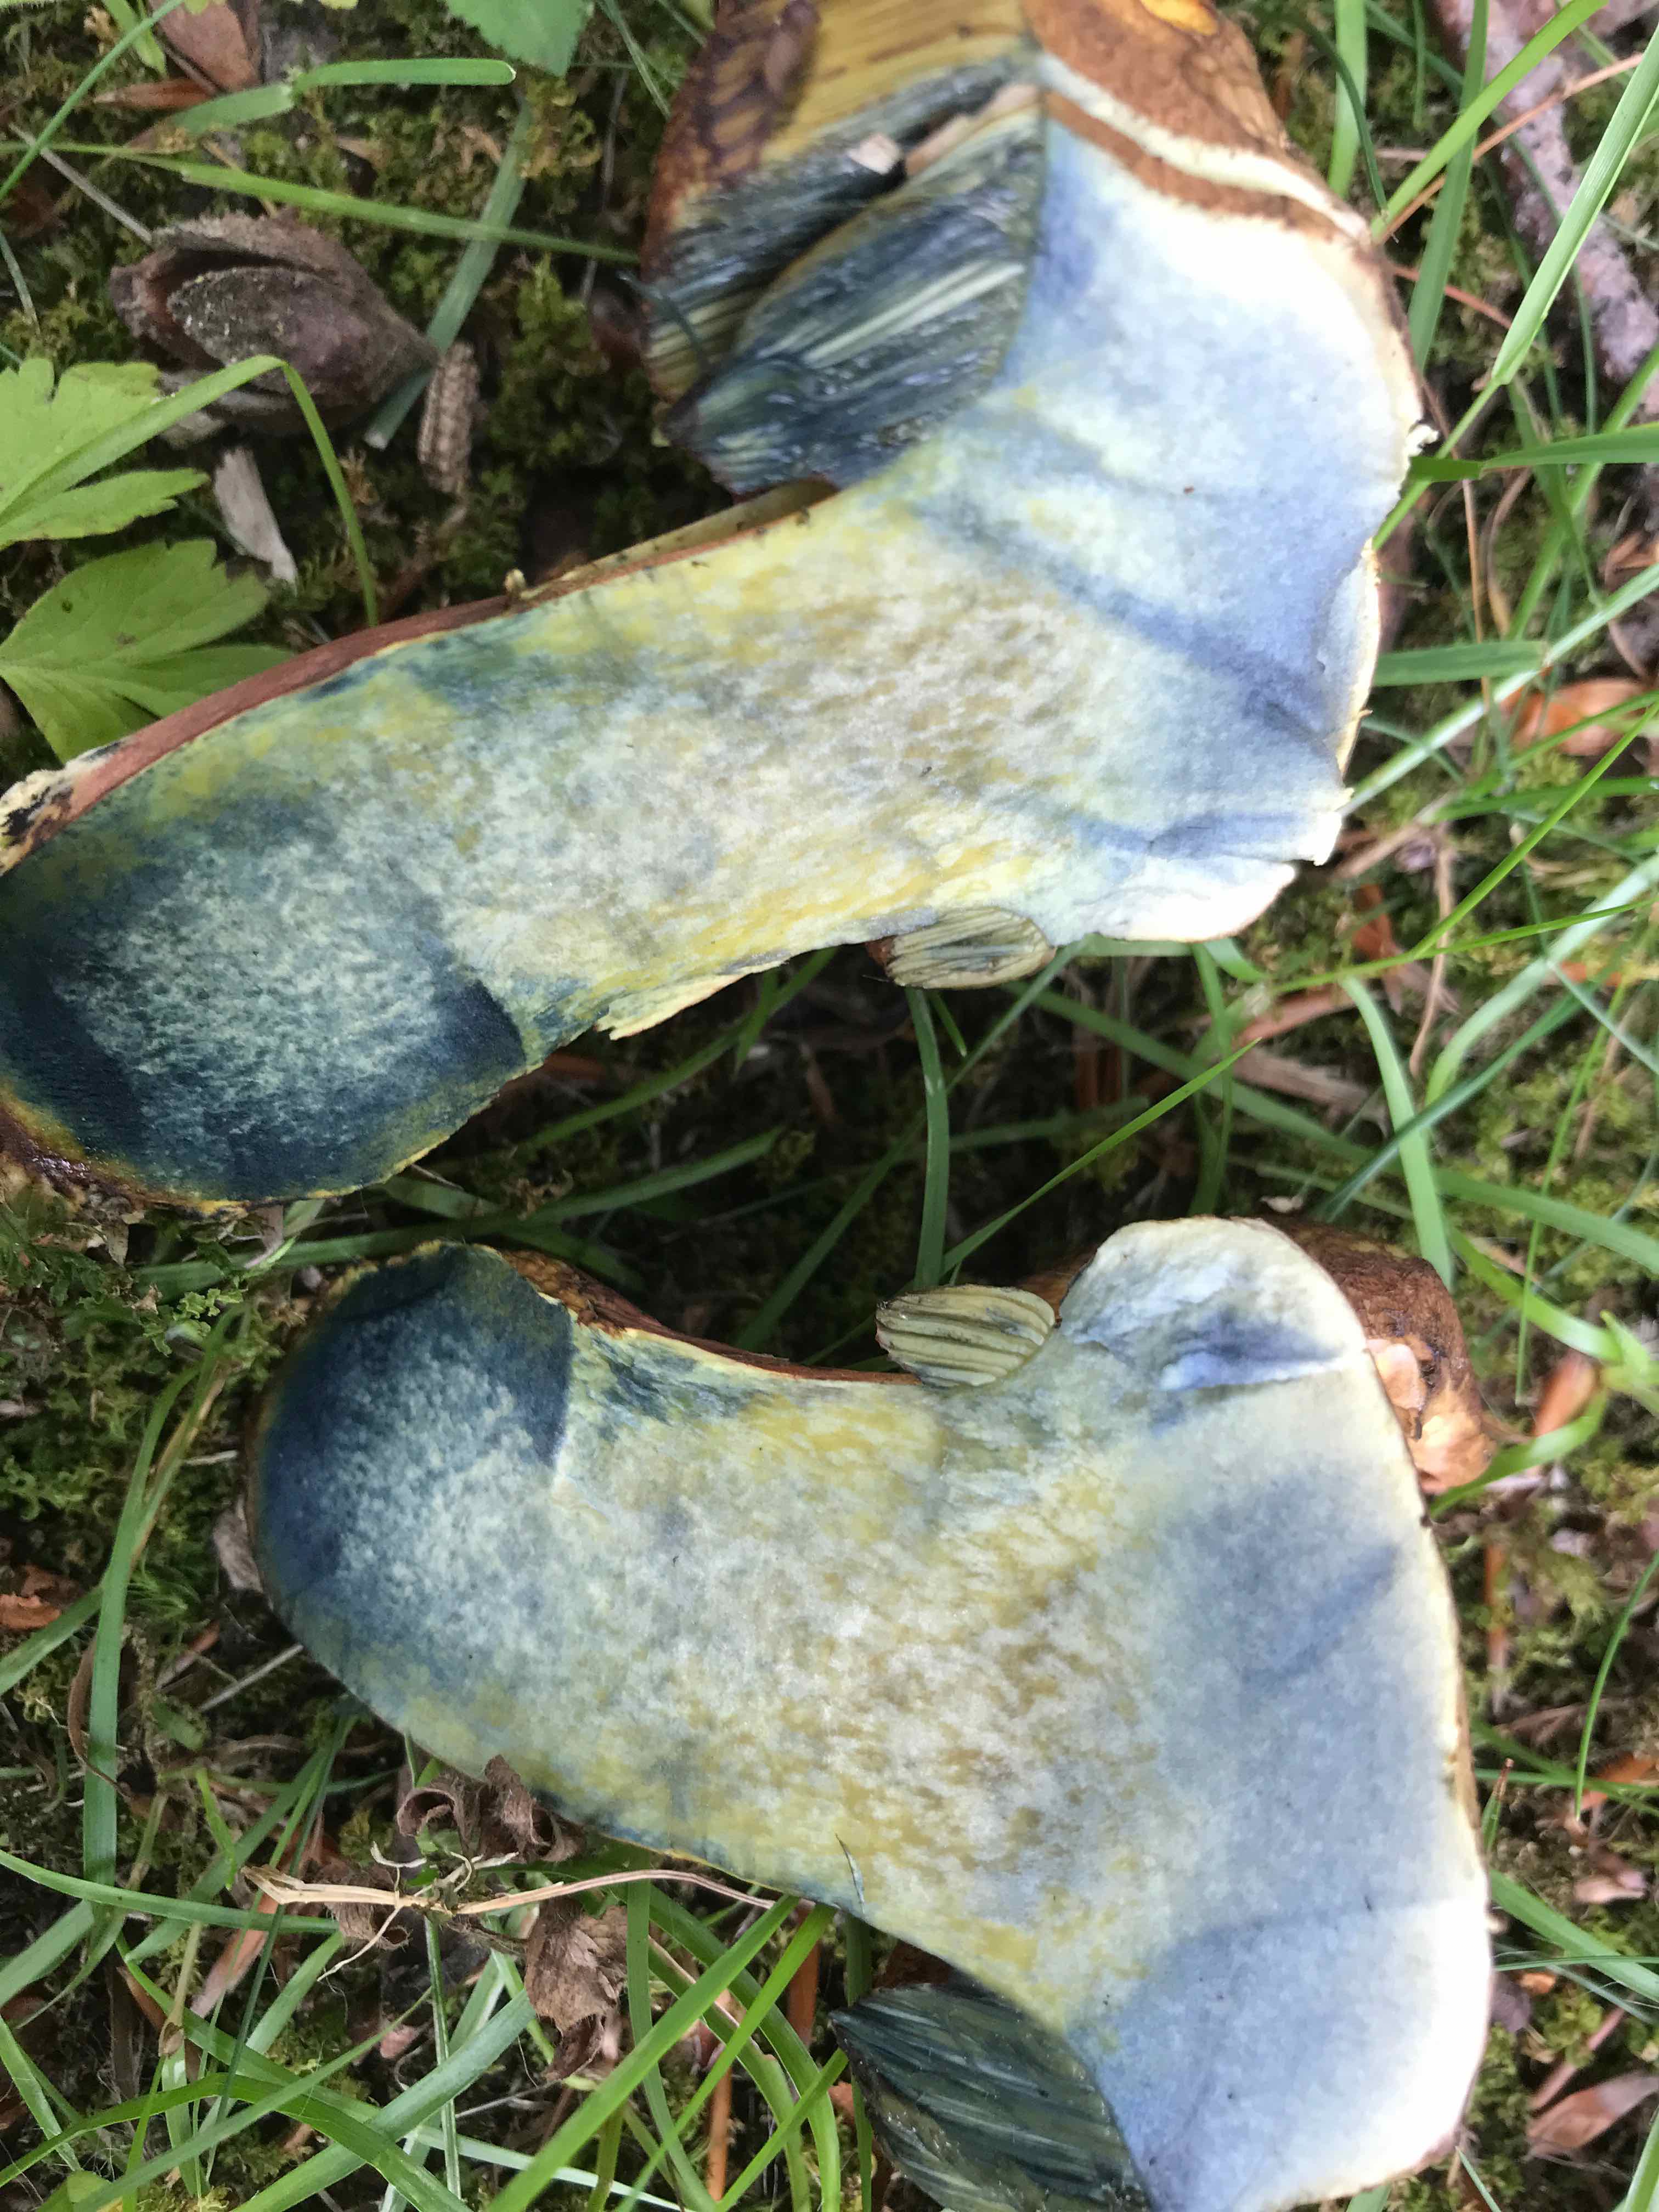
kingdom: Fungi
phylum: Basidiomycota
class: Agaricomycetes
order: Boletales
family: Boletaceae
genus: Neoboletus
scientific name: Neoboletus xanthopus
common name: finprikket indigorørhat
